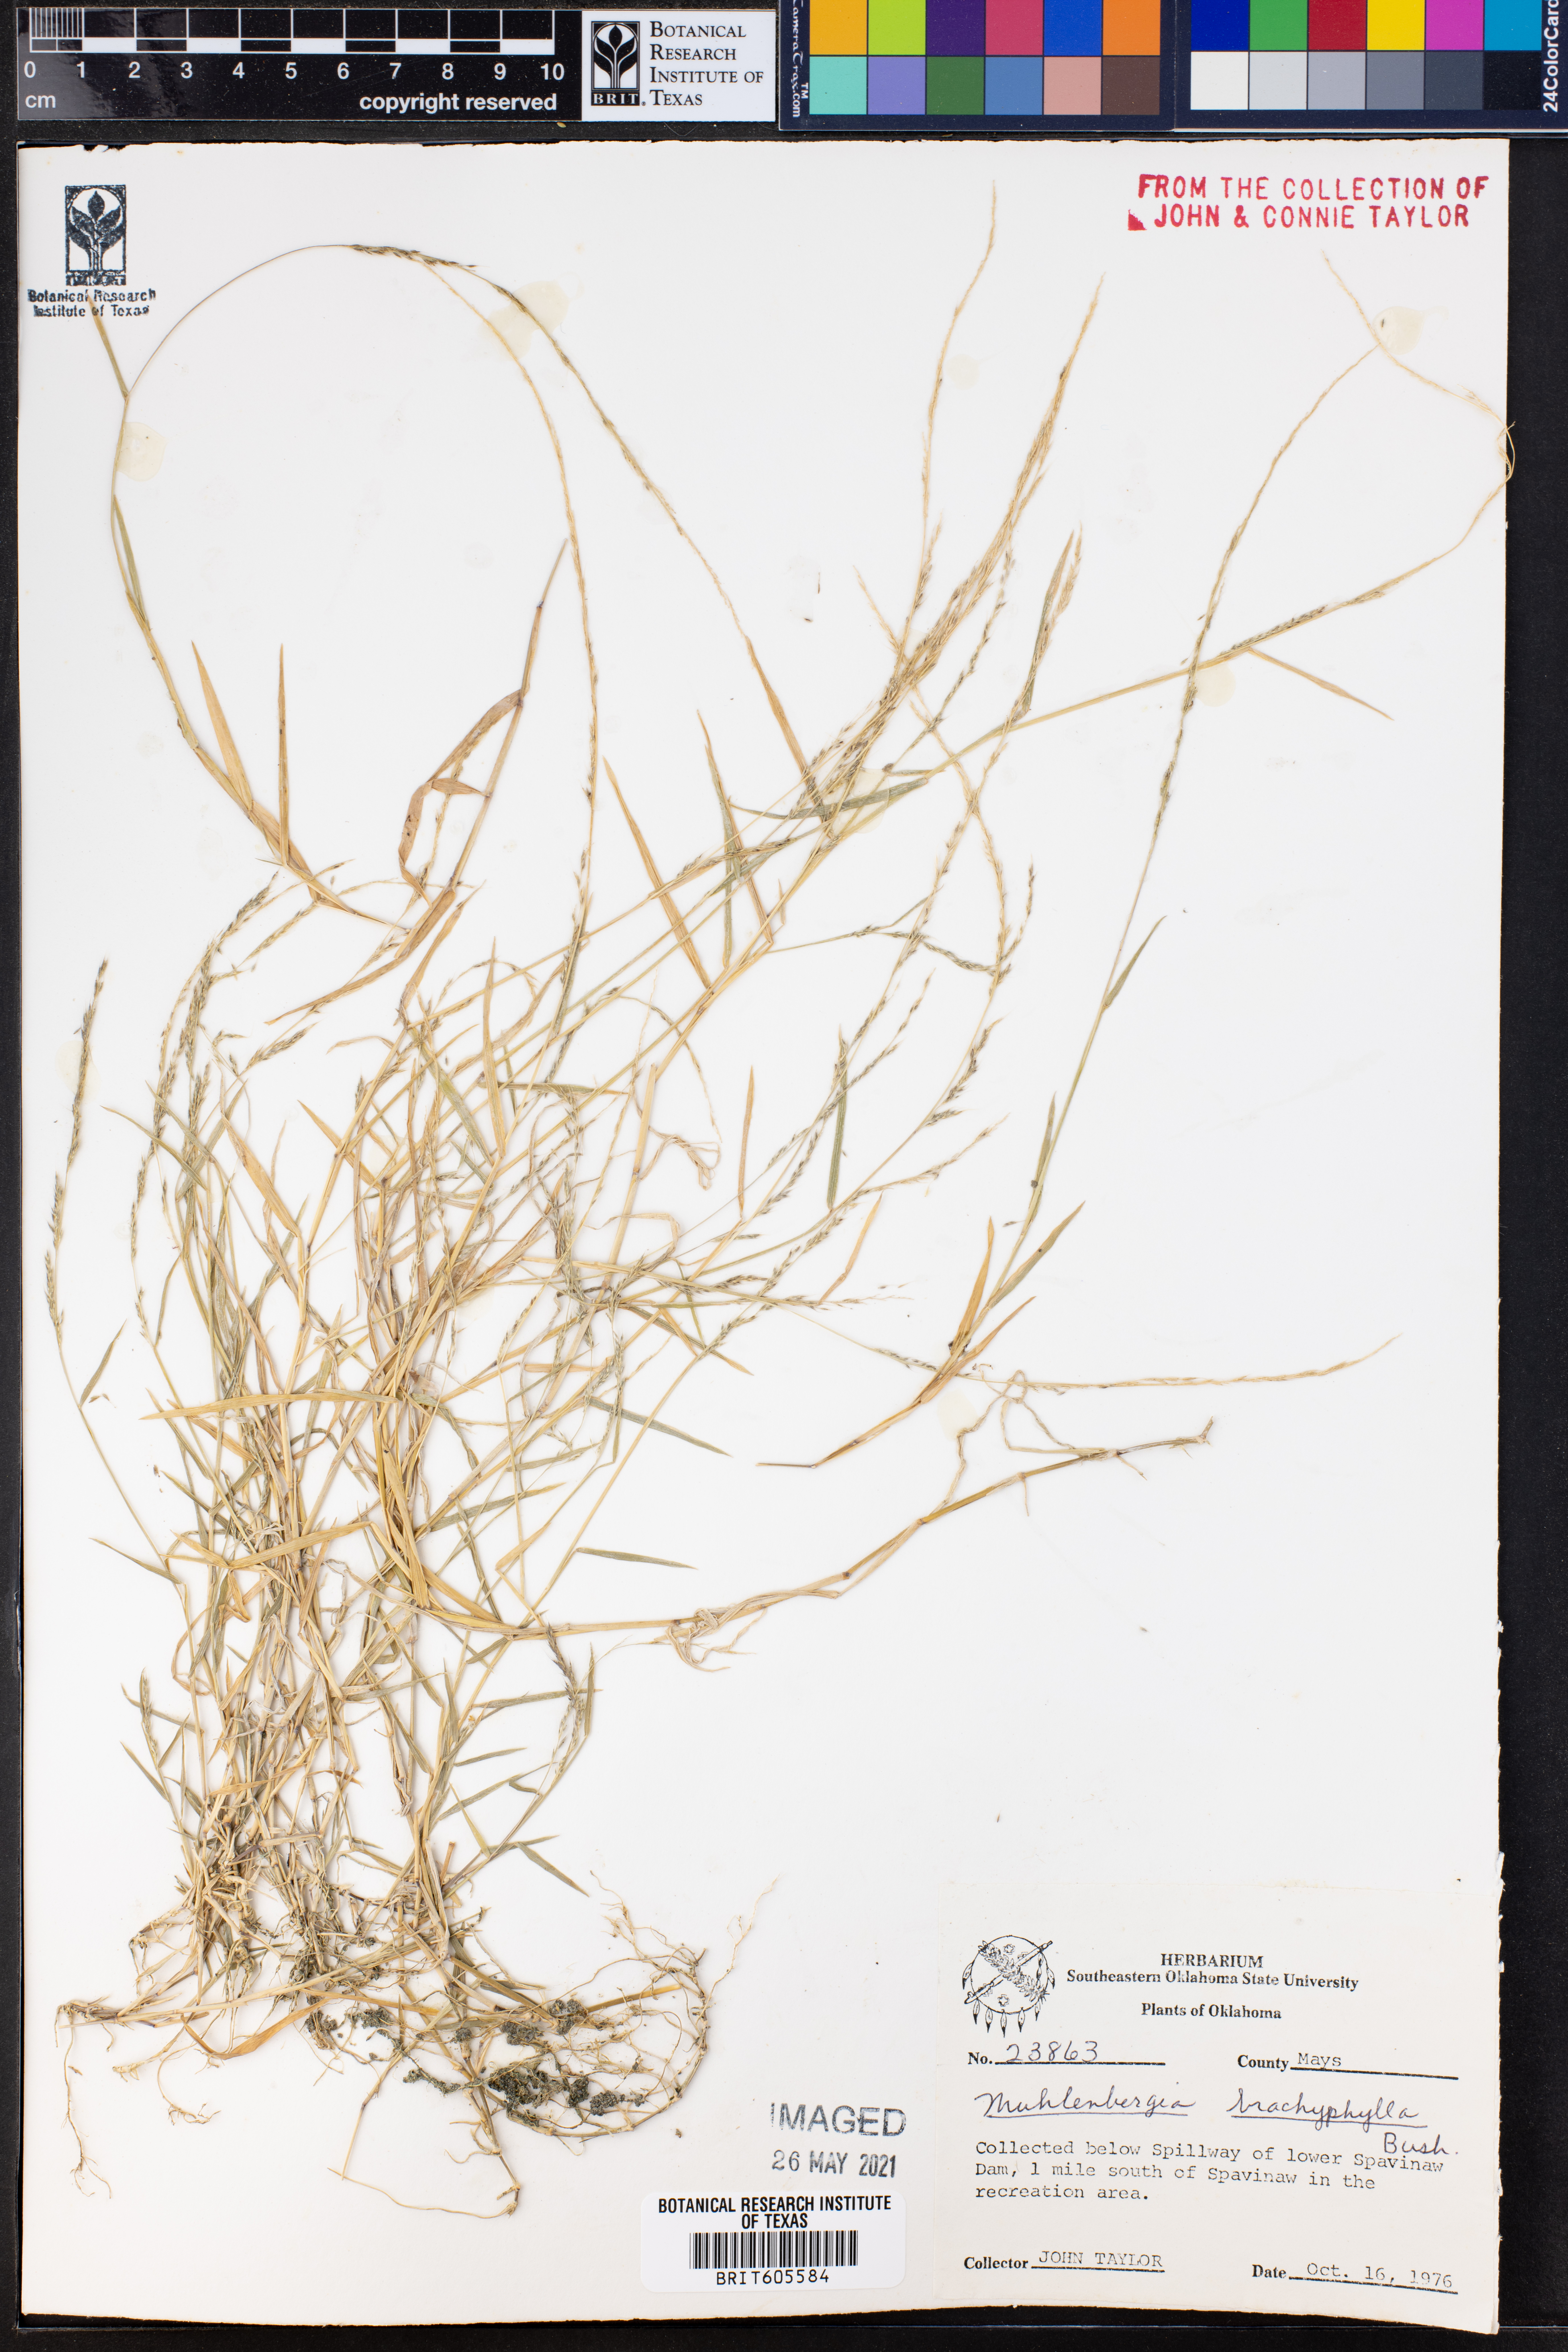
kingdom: Plantae
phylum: Tracheophyta
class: Liliopsida
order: Poales
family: Poaceae
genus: Muhlenbergia
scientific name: Muhlenbergia bushii
